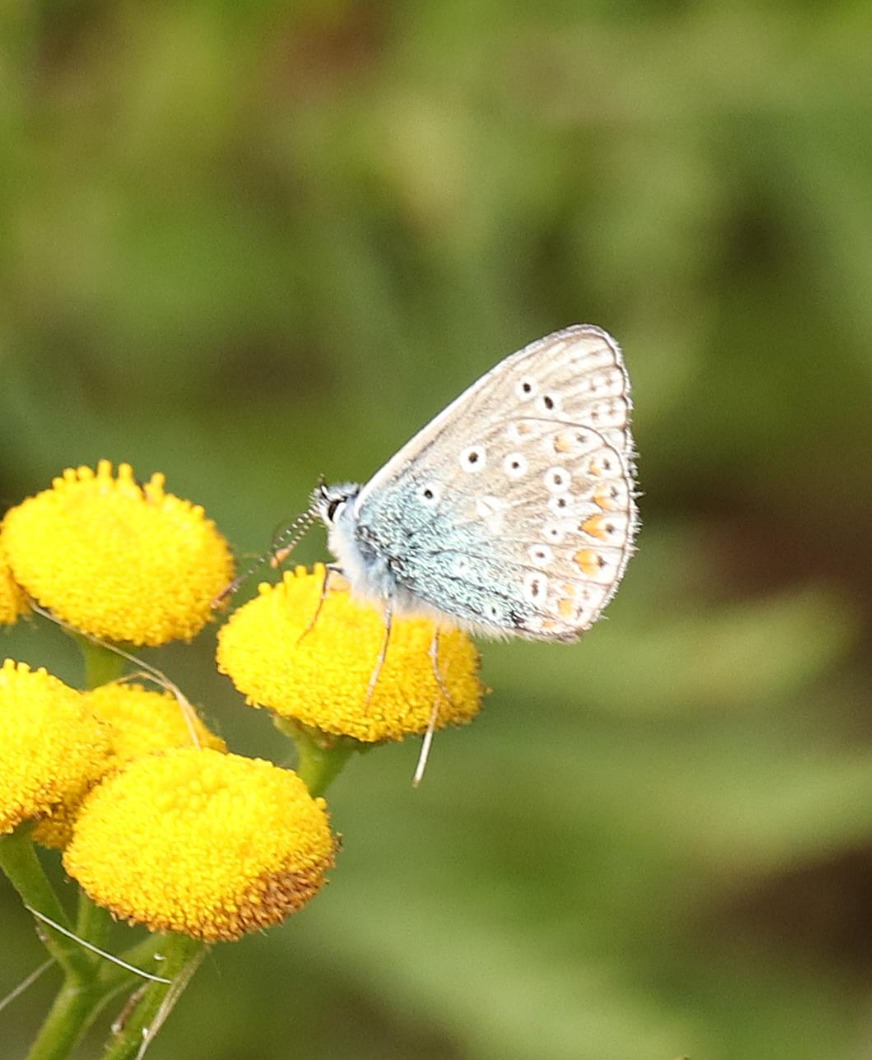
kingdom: Animalia
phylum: Arthropoda
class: Insecta
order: Lepidoptera
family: Lycaenidae
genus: Polyommatus
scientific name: Polyommatus icarus
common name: Almindelig blåfugl
